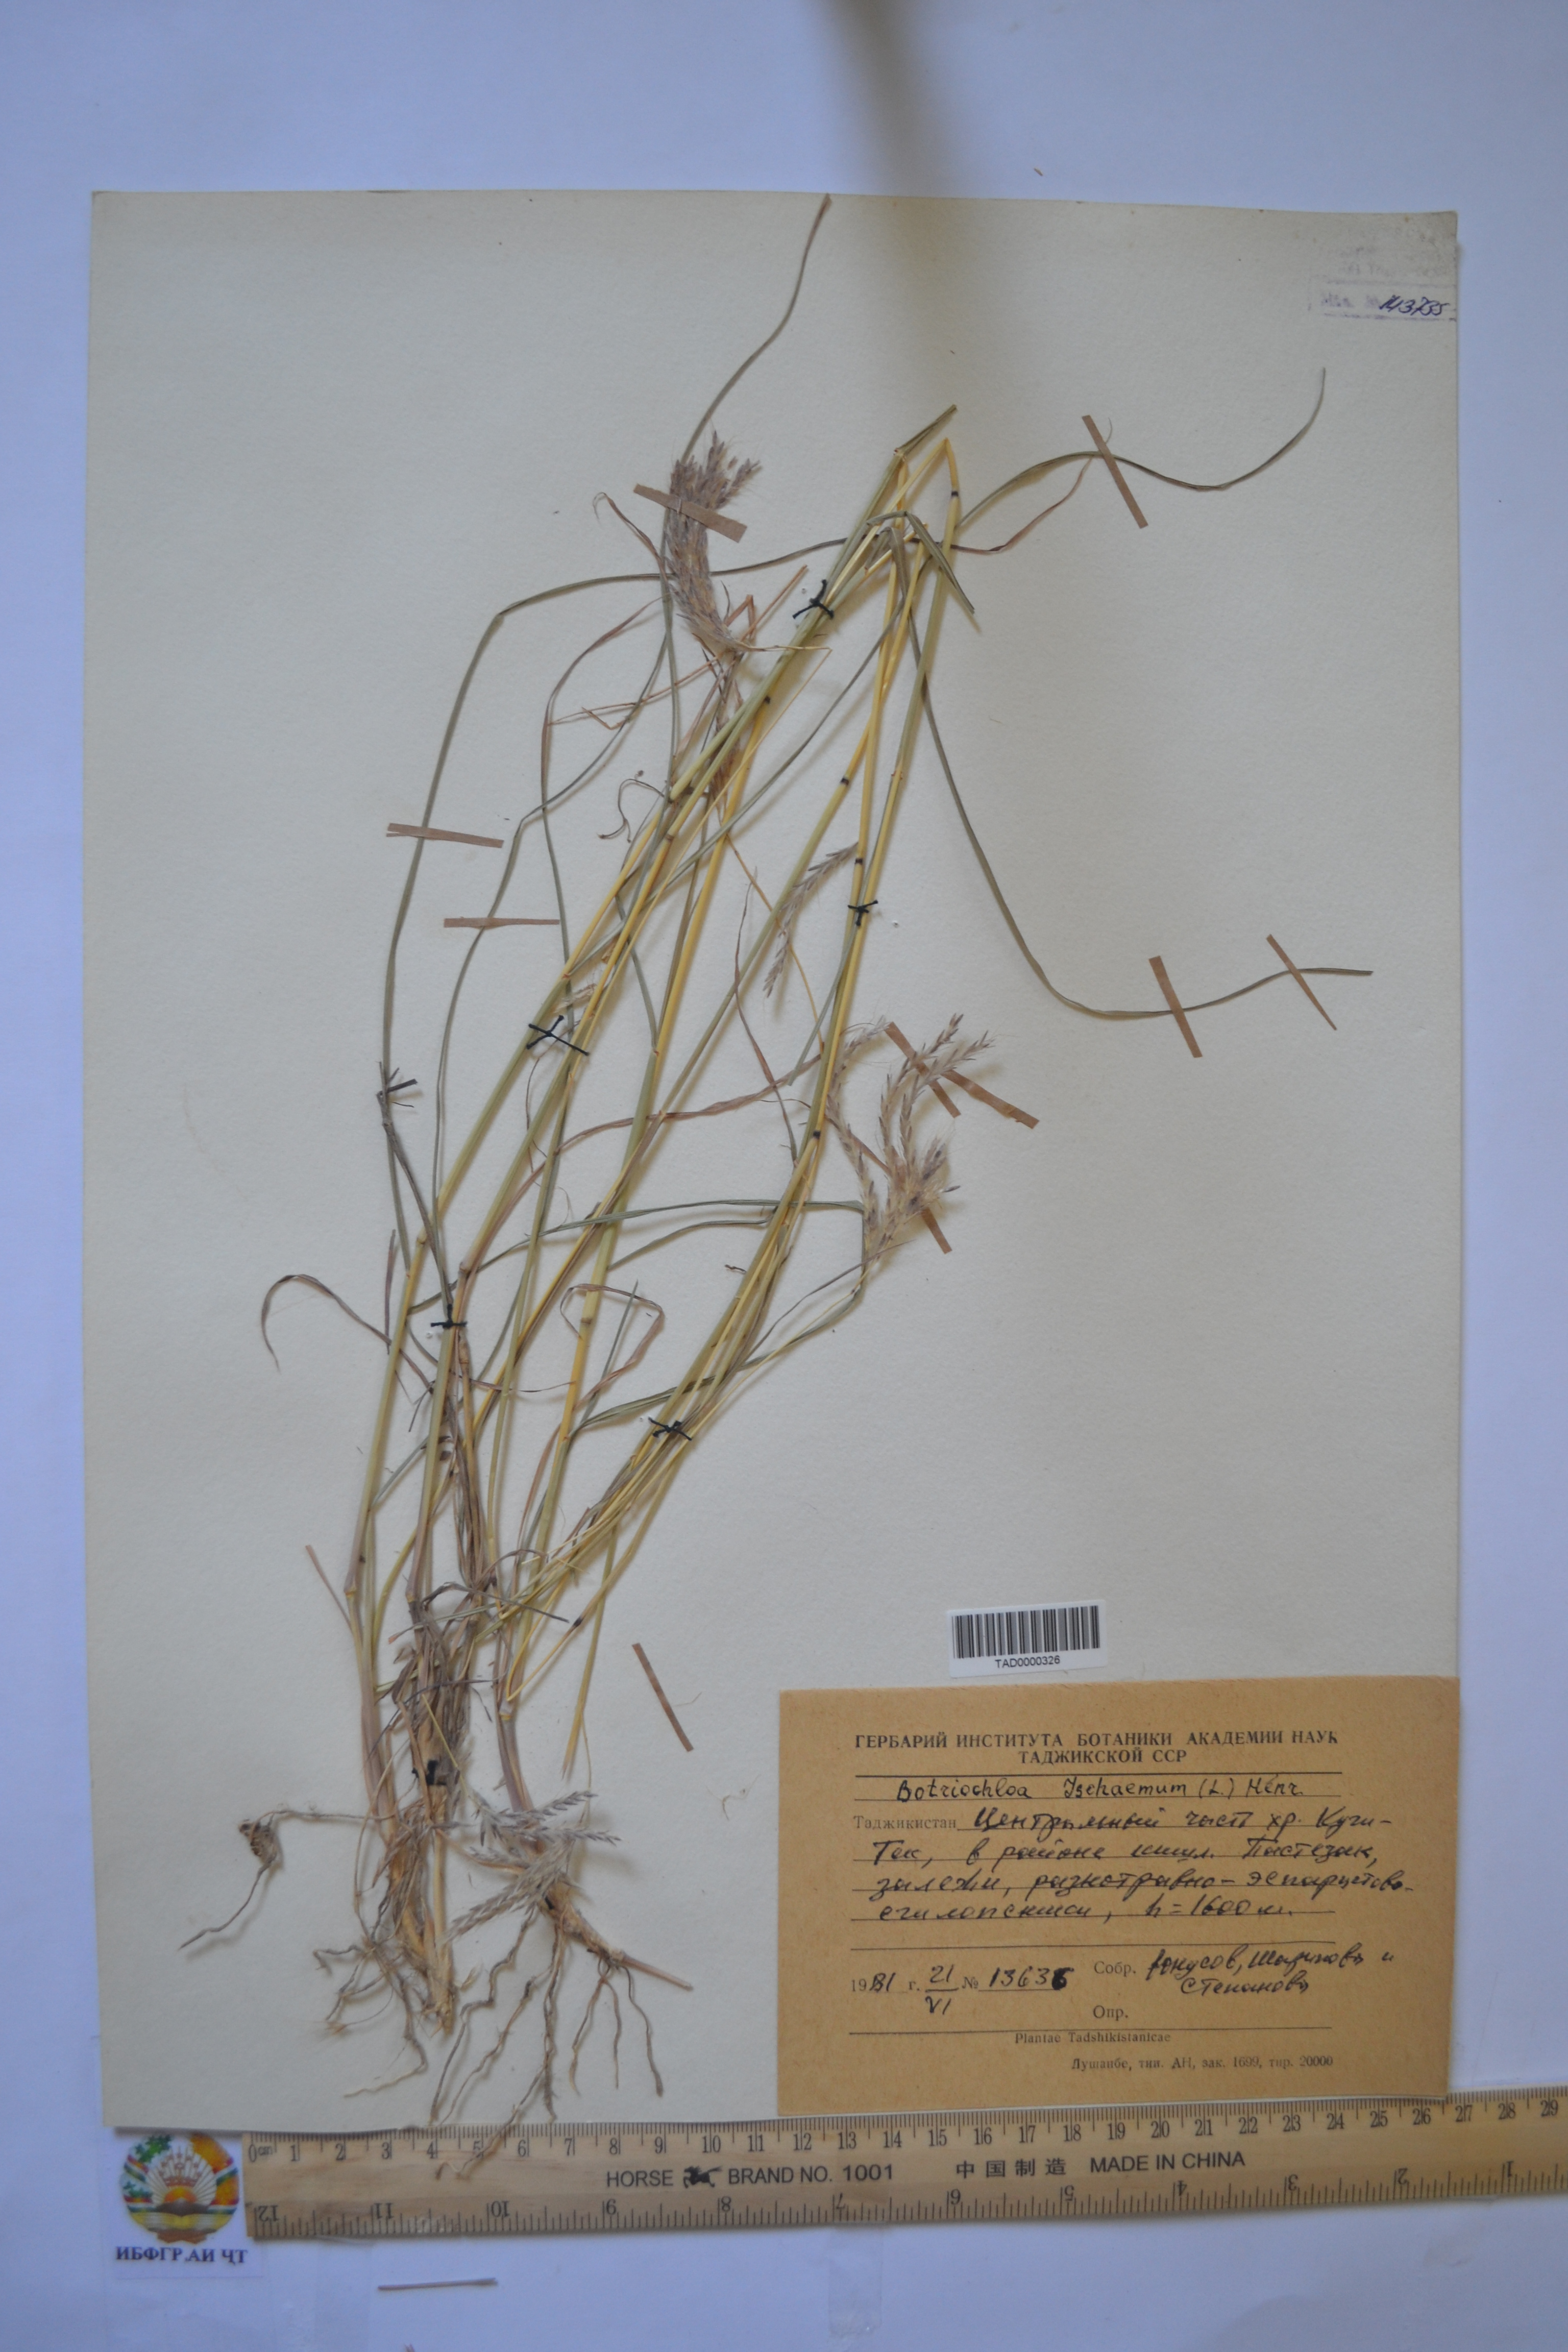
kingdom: Plantae
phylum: Tracheophyta
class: Liliopsida
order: Poales
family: Poaceae
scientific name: Poaceae
